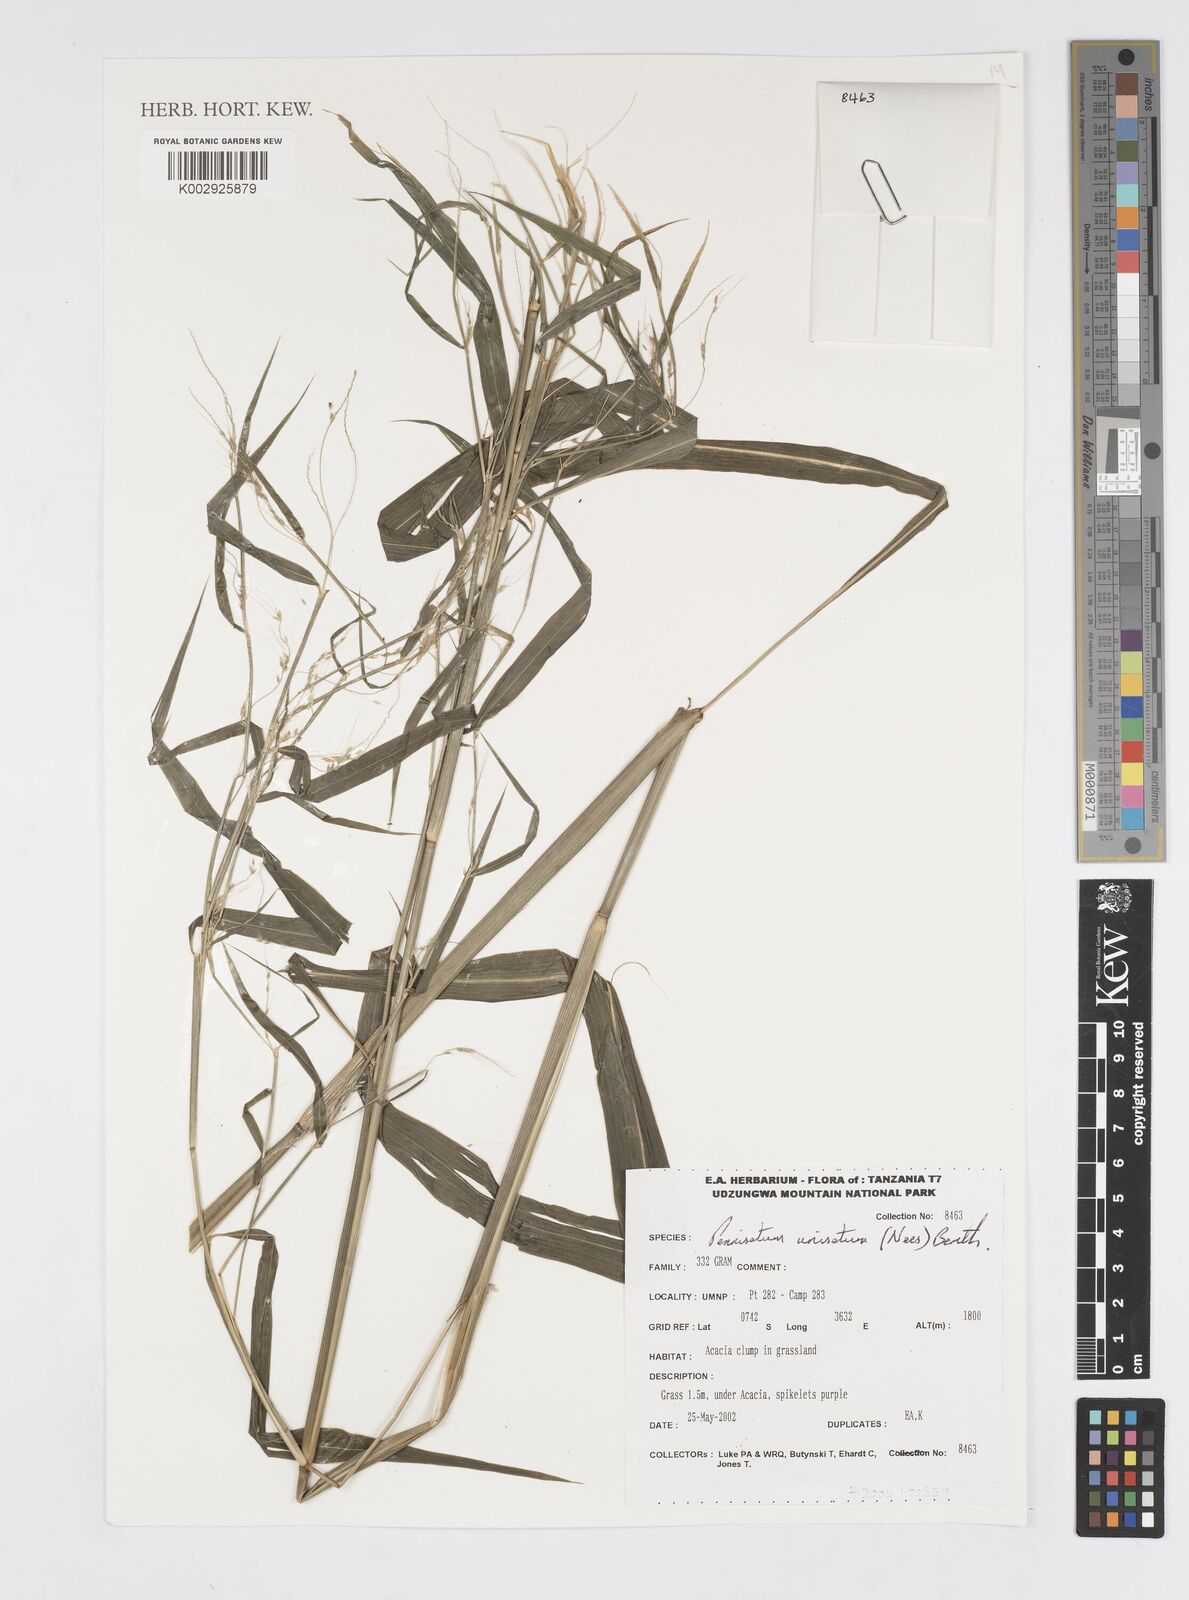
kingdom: Plantae
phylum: Tracheophyta
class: Liliopsida
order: Poales
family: Poaceae
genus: Cenchrus
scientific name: Cenchrus Pennisetum spec
